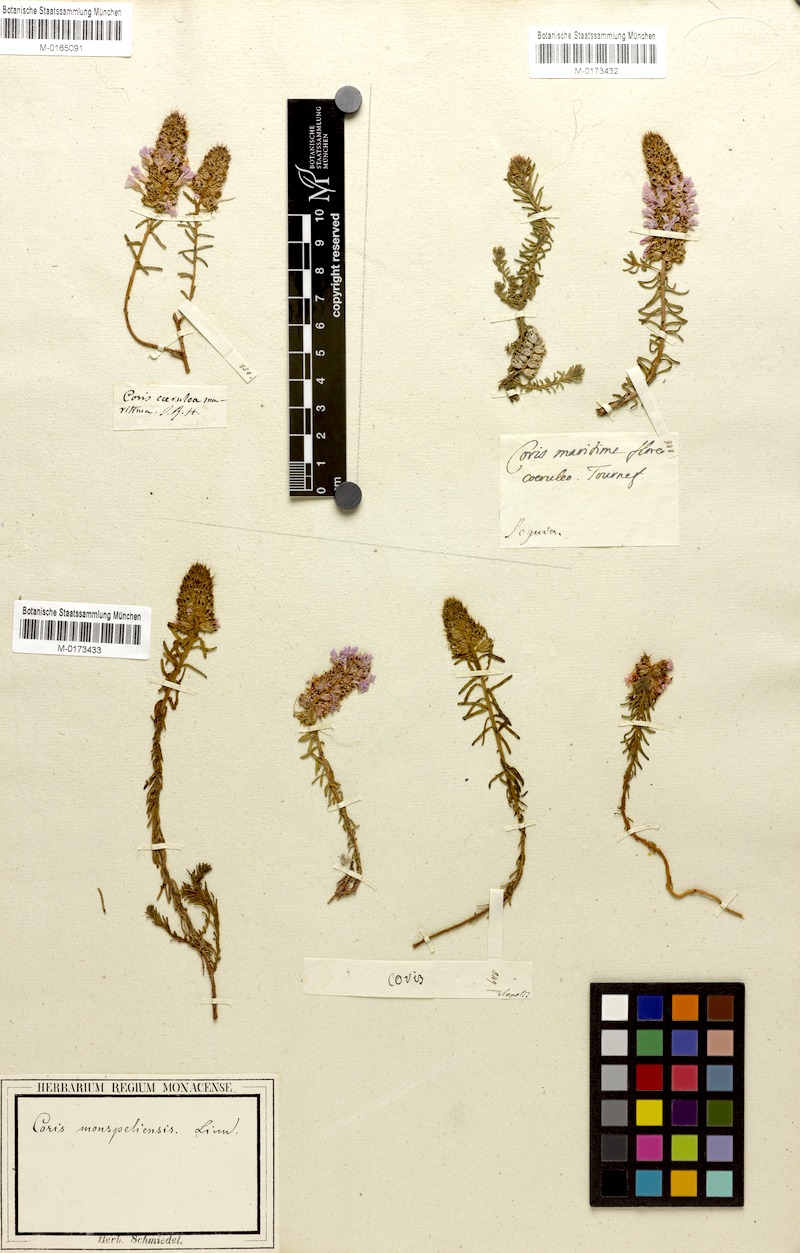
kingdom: Plantae
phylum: Tracheophyta
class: Magnoliopsida
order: Ericales
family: Primulaceae
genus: Coris
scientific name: Coris monspeliensis
